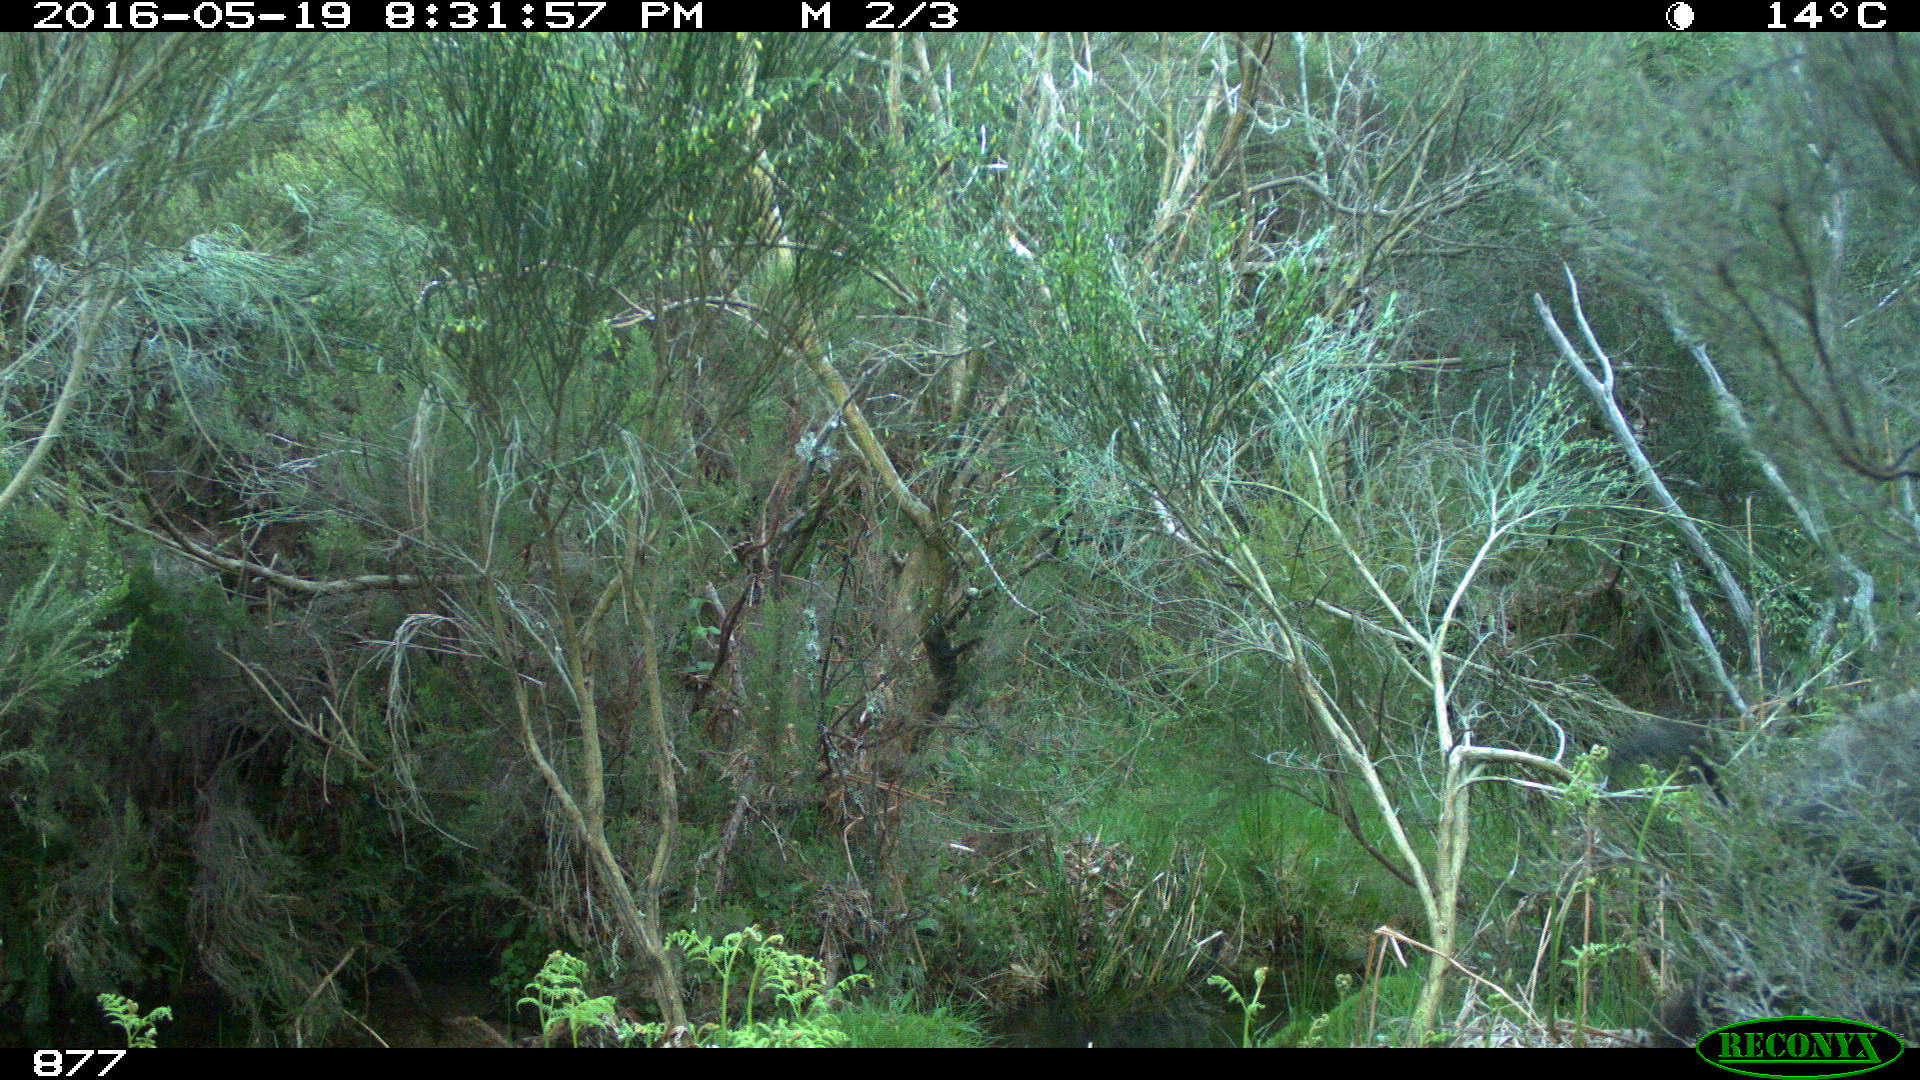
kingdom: Animalia
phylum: Chordata
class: Mammalia
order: Artiodactyla
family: Suidae
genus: Sus
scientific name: Sus scrofa
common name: Wild boar
